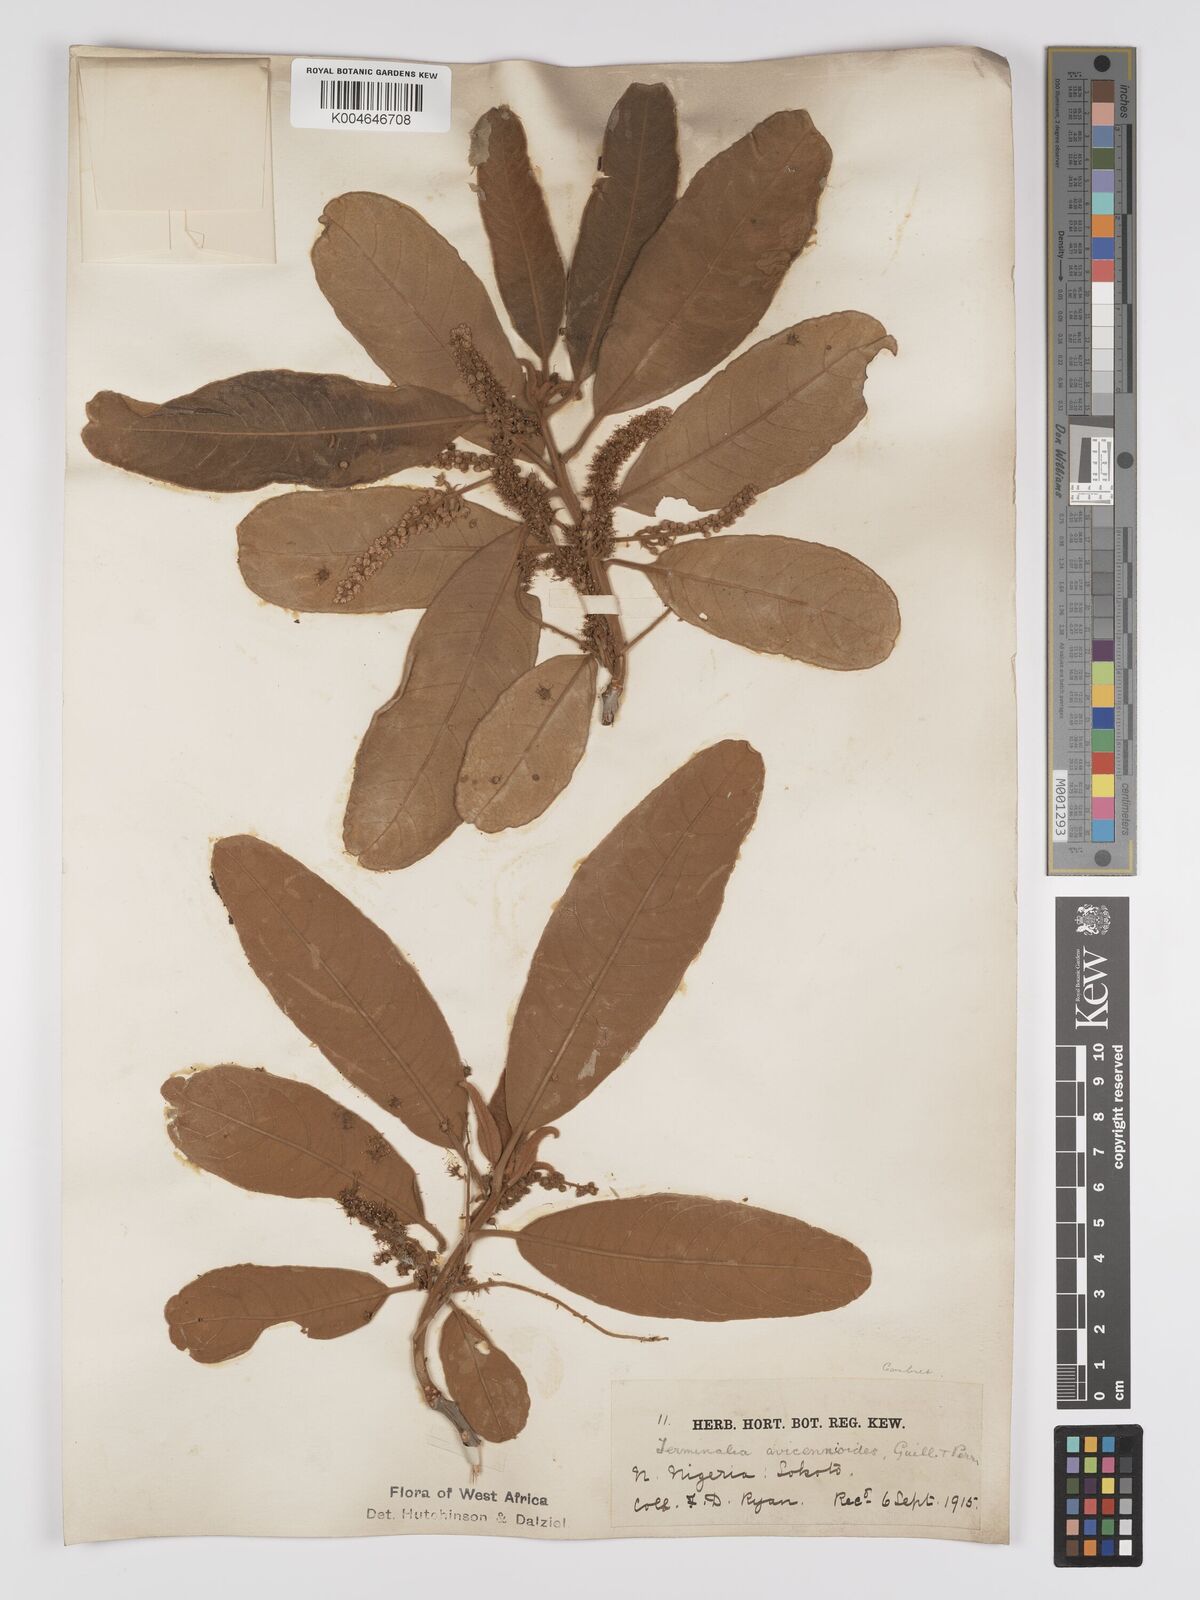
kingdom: Plantae
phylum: Tracheophyta
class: Magnoliopsida
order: Myrtales
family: Combretaceae
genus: Terminalia
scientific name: Terminalia avicennioides
